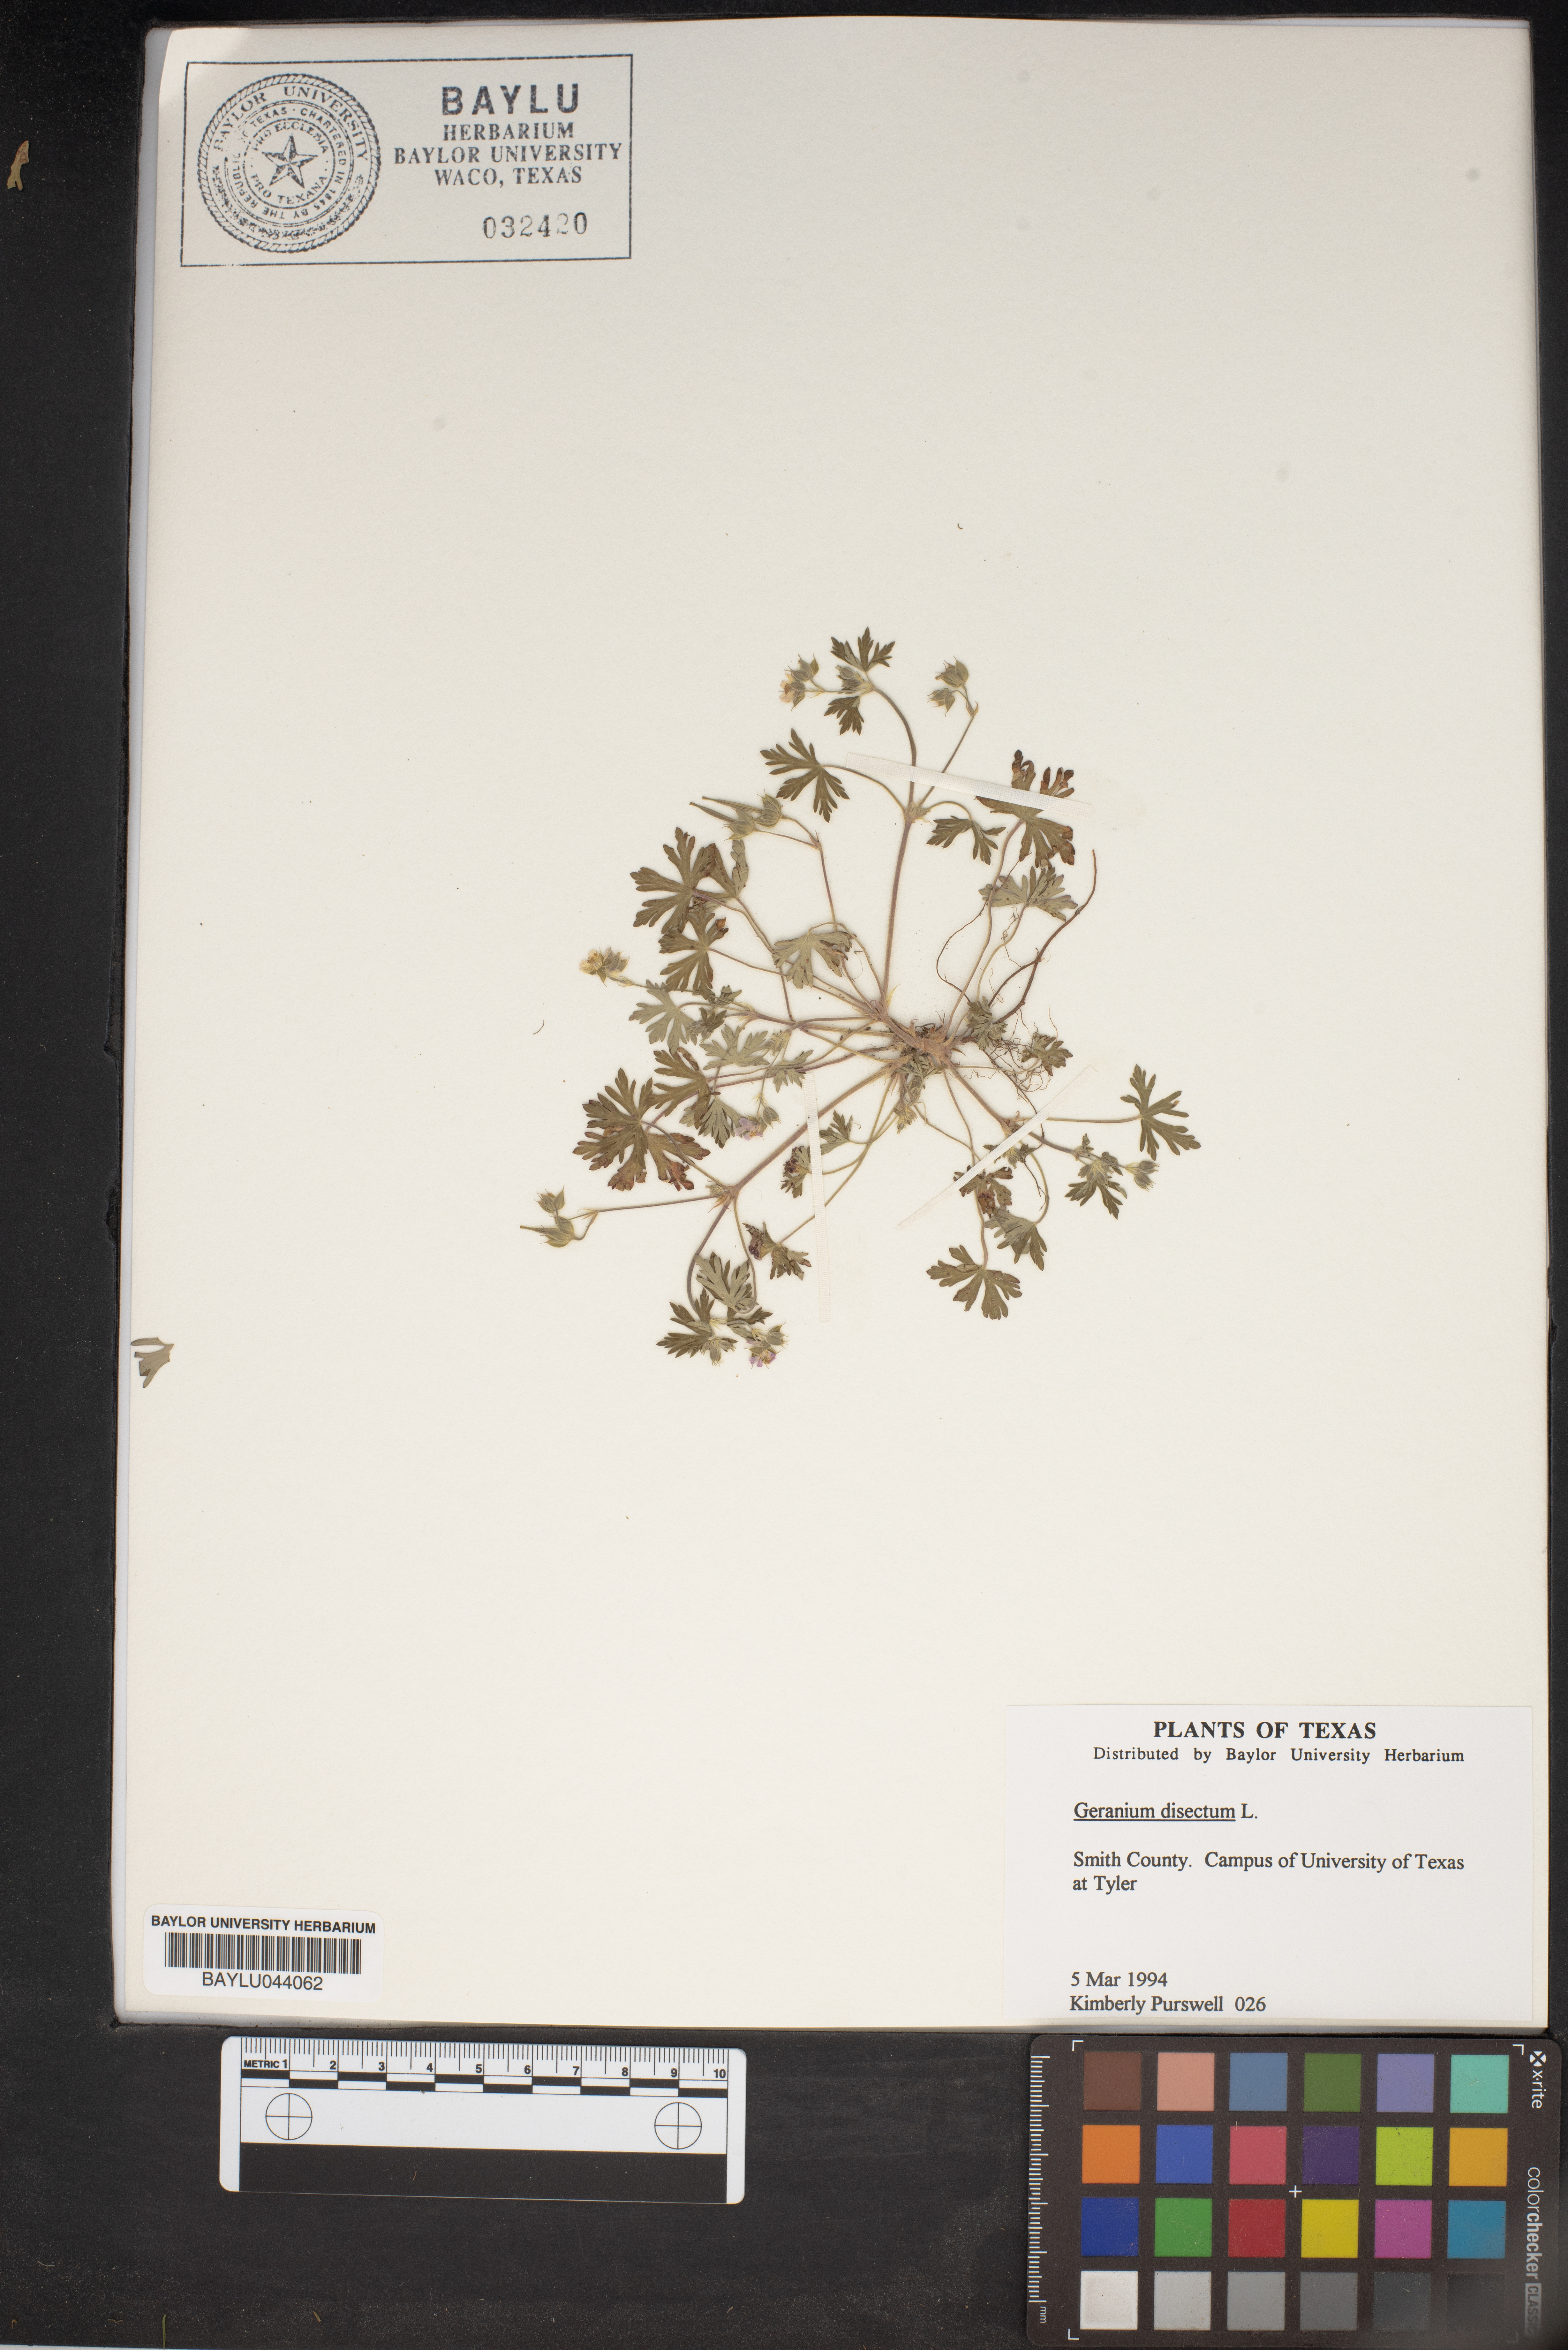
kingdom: Plantae
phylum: Tracheophyta
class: Magnoliopsida
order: Geraniales
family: Geraniaceae
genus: Geranium
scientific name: Geranium dissectum
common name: Cut-leaved crane's-bill
